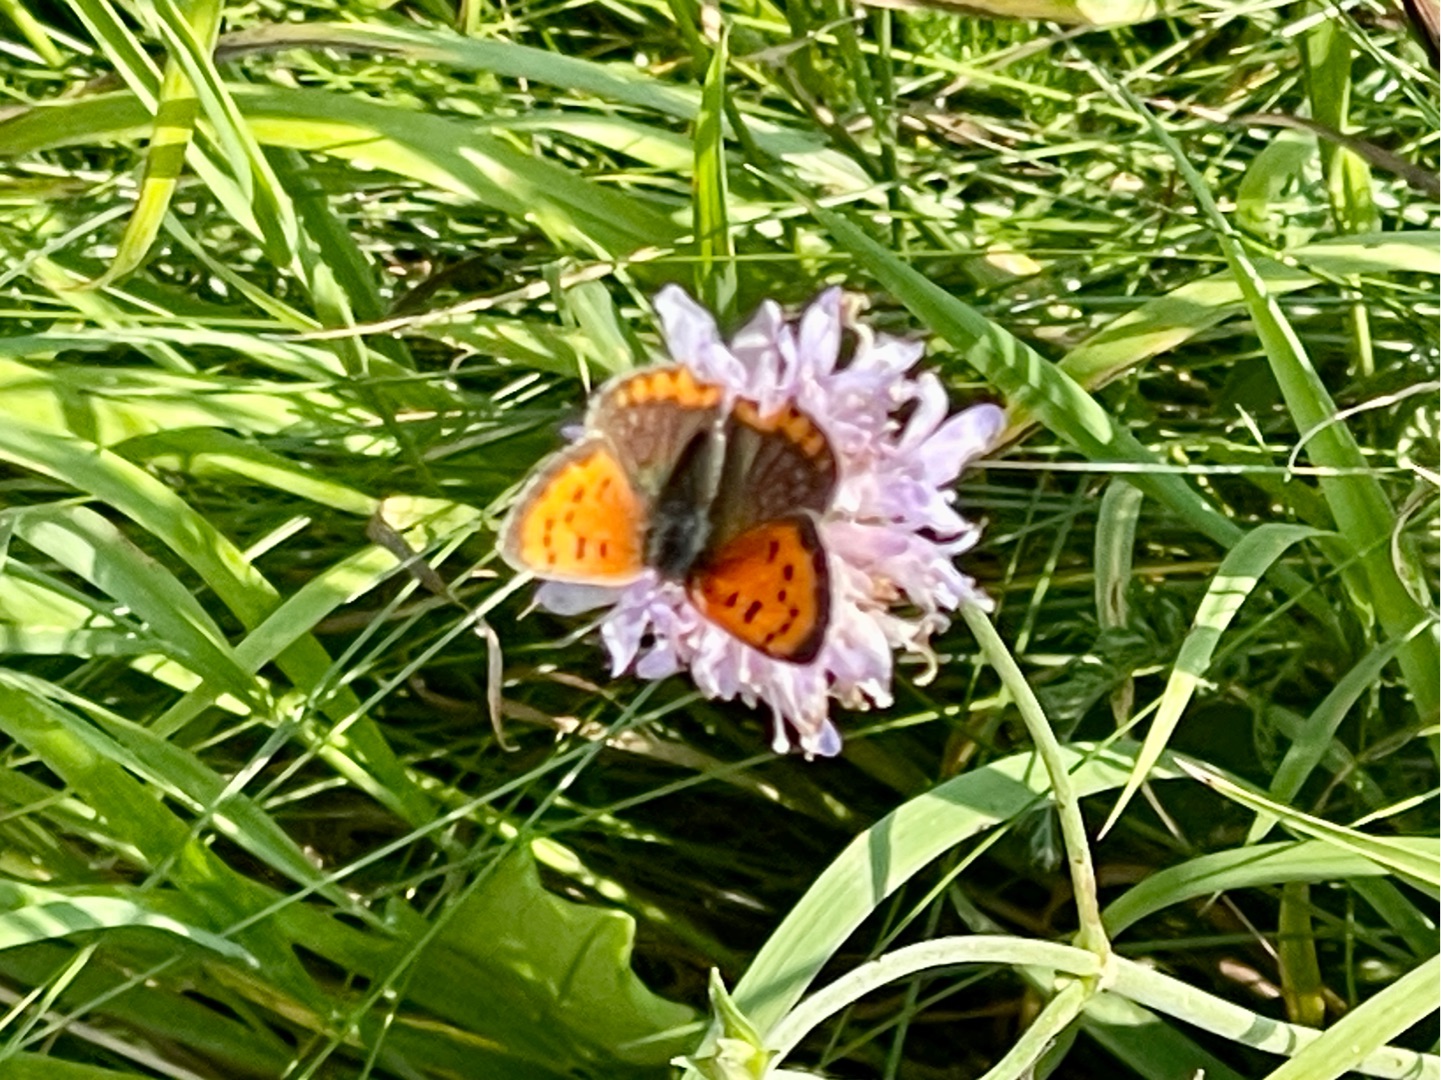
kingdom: Animalia
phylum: Arthropoda
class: Insecta
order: Lepidoptera
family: Lycaenidae
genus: Lycaena
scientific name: Lycaena phlaeas
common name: Lille ildfugl
